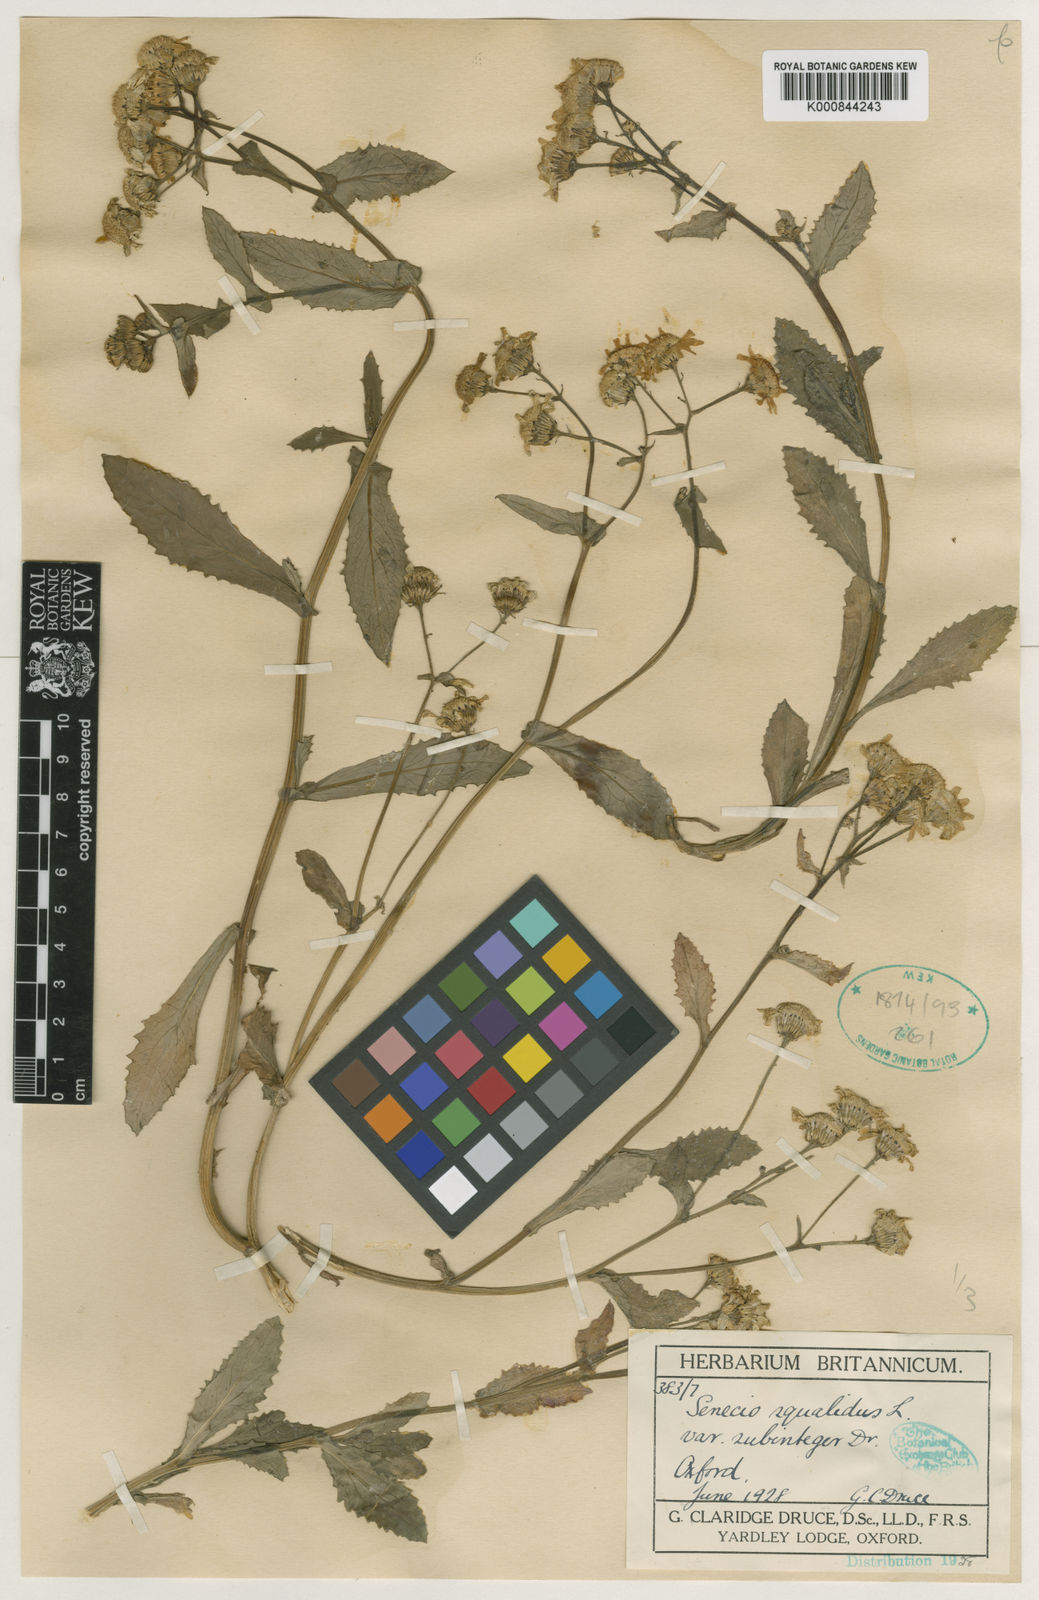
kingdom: Plantae
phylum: Tracheophyta
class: Magnoliopsida
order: Asterales
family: Asteraceae
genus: Senecio
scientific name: Senecio squalidus
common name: Oxford ragwort
